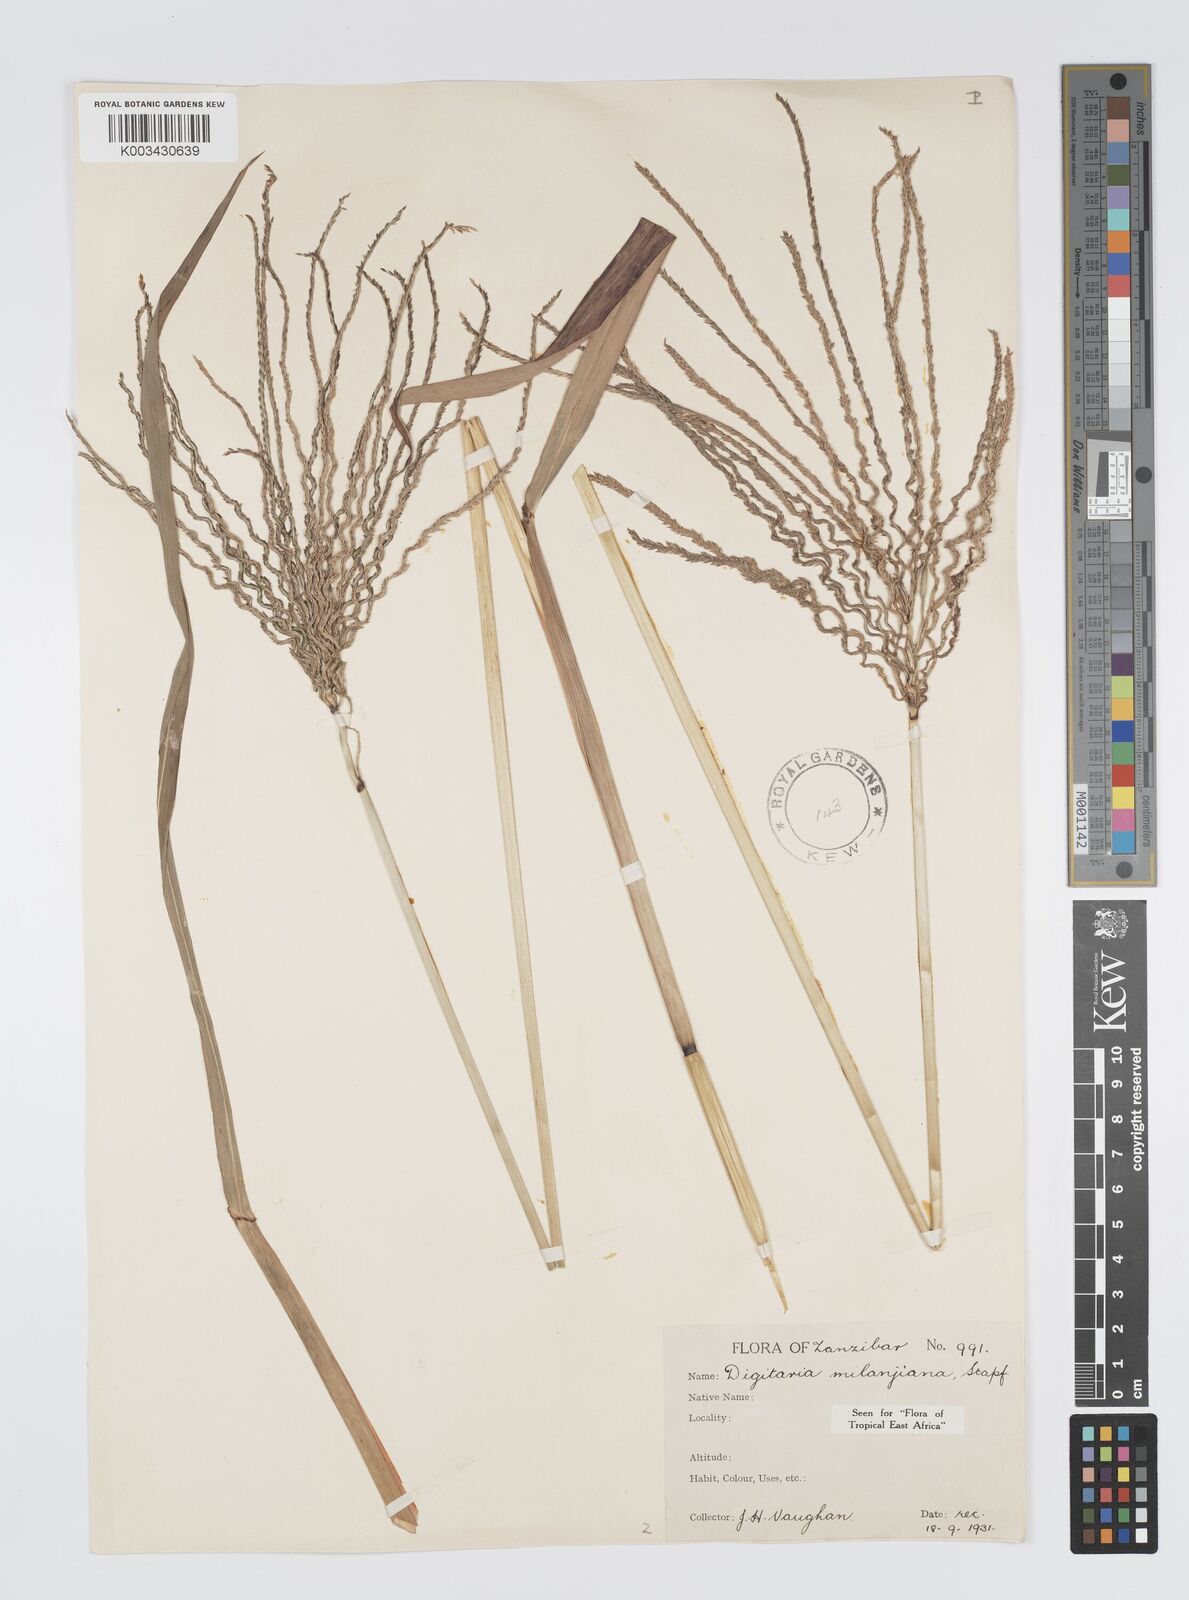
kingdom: Plantae
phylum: Tracheophyta
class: Liliopsida
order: Poales
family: Poaceae
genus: Digitaria
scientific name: Digitaria milanjiana
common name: Madagascar crabgrass
